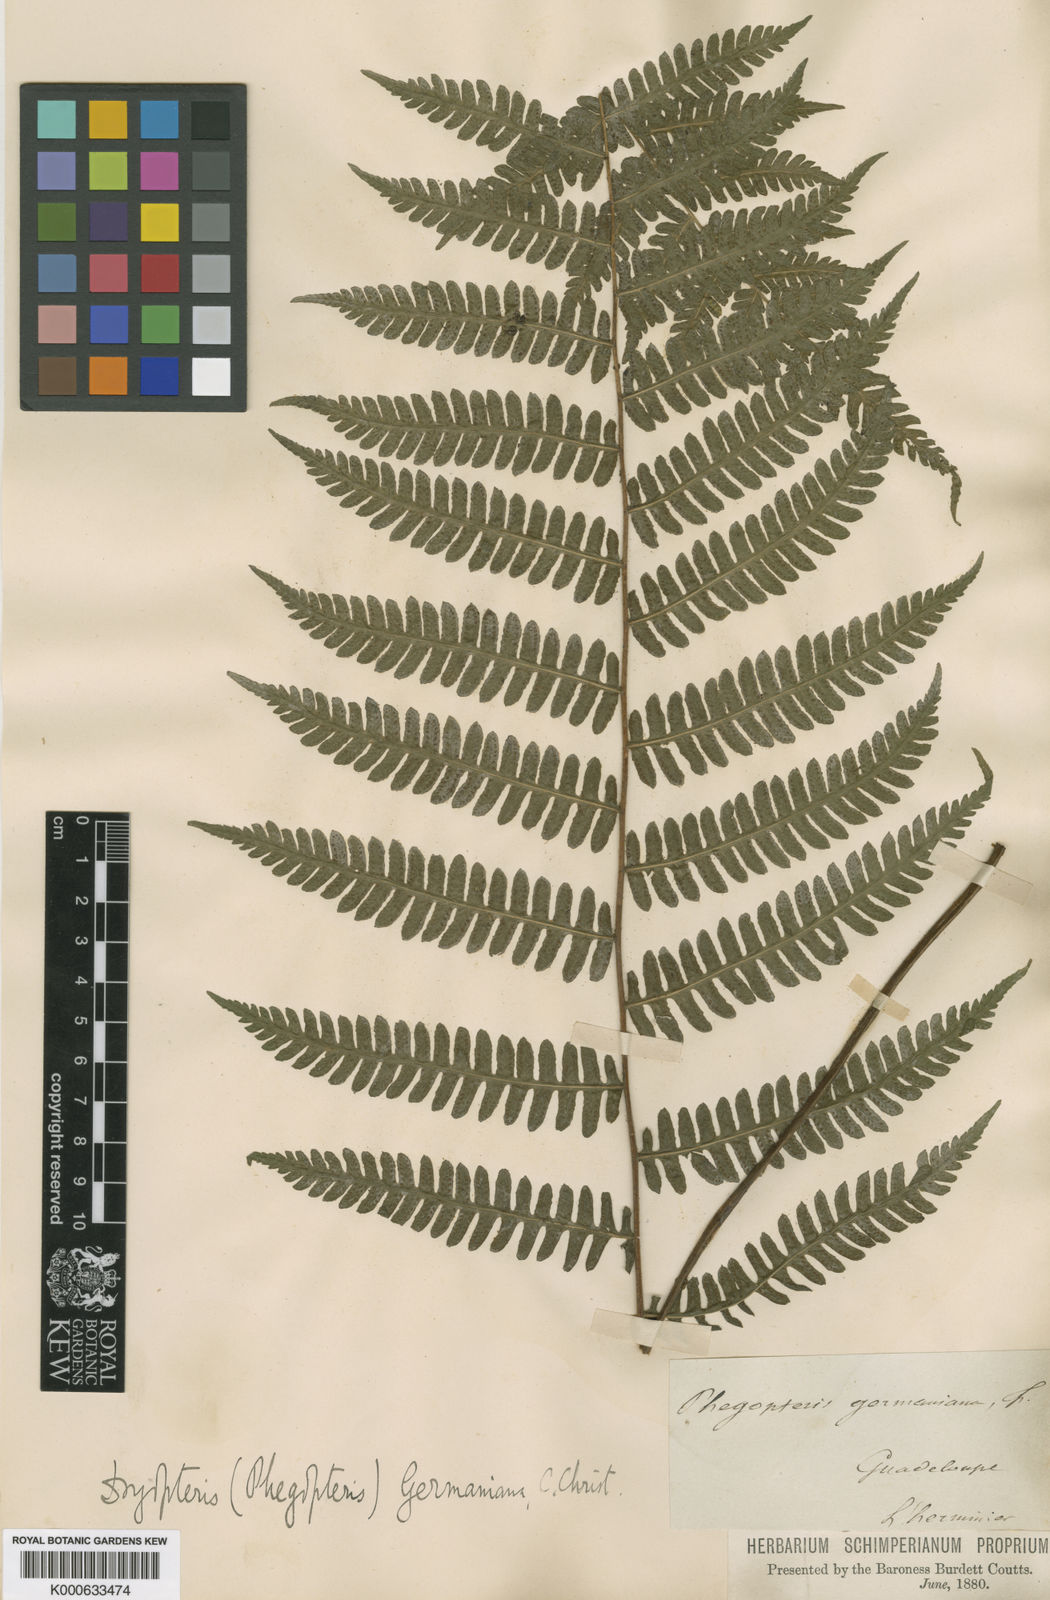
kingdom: Plantae
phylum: Tracheophyta
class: Polypodiopsida
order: Polypodiales
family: Thelypteridaceae
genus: Amauropelta
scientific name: Amauropelta
